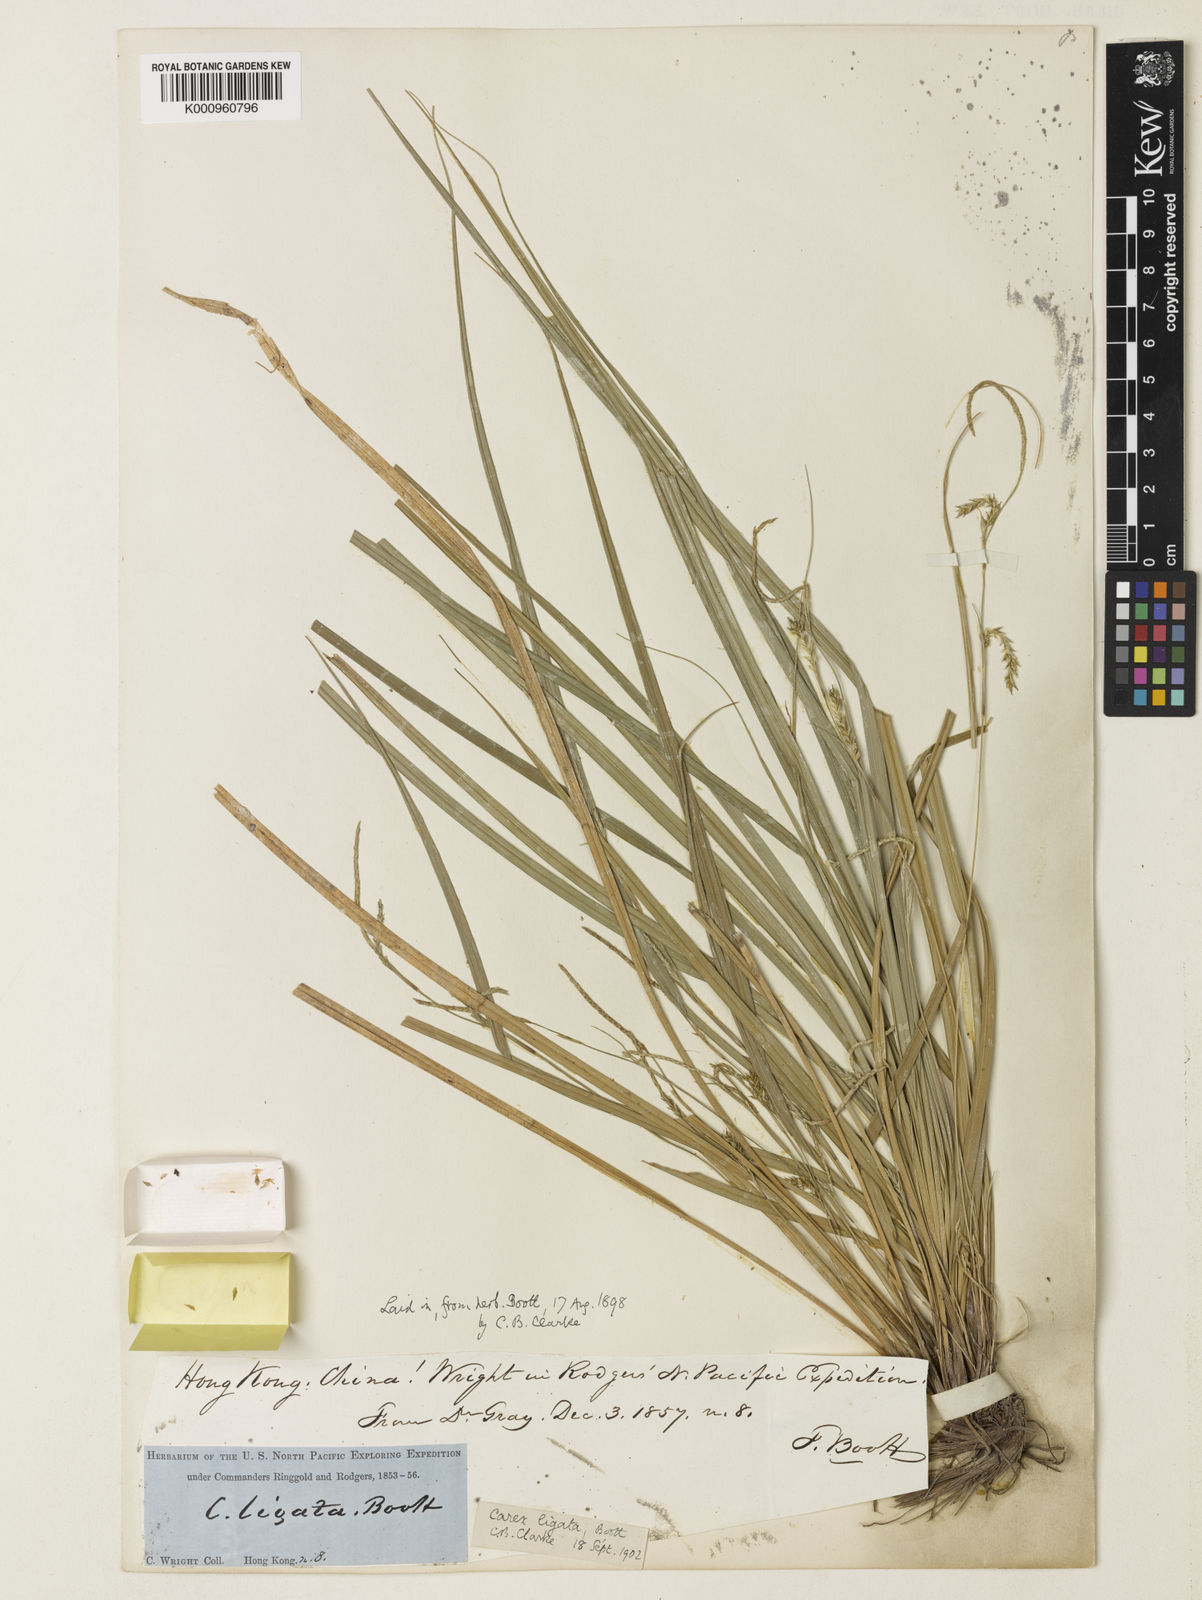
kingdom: Plantae
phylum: Tracheophyta
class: Liliopsida
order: Poales
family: Cyperaceae
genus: Carex
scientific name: Carex ligata
